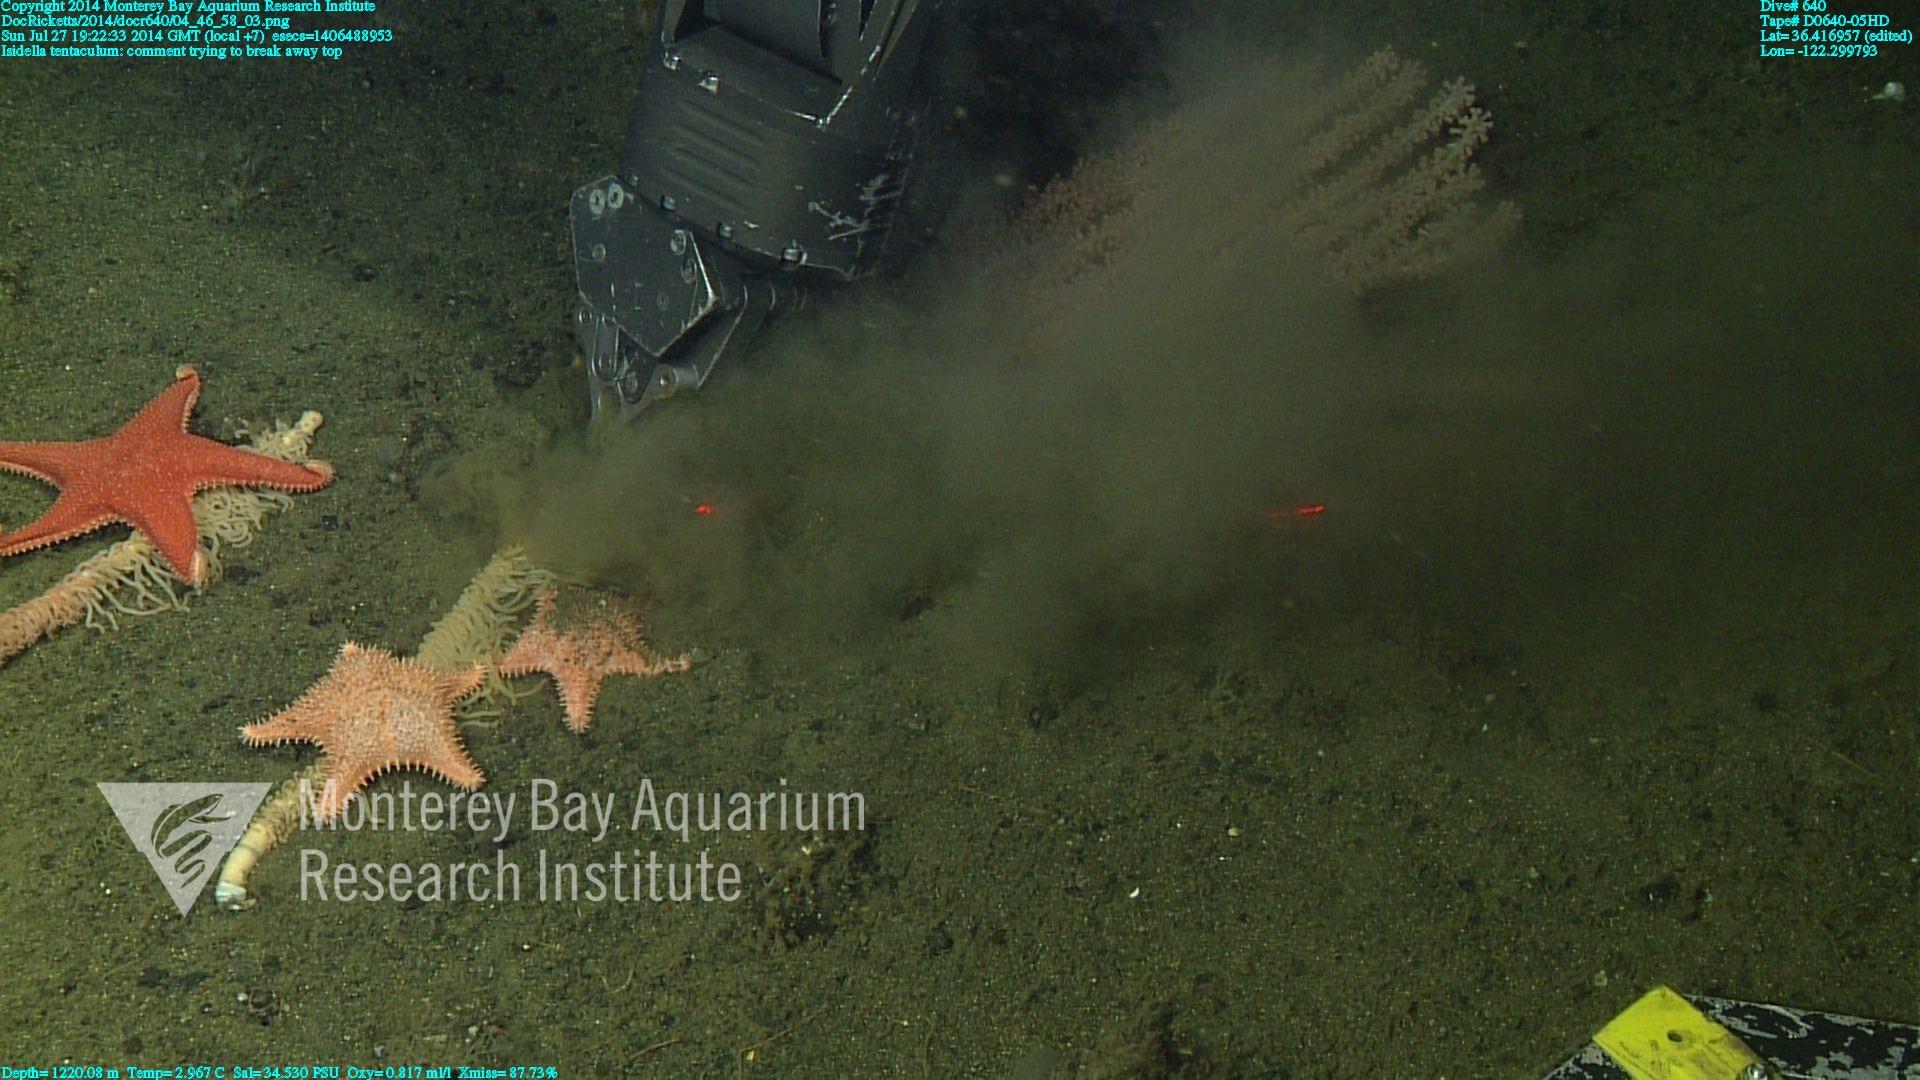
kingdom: Animalia
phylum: Cnidaria
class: Anthozoa
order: Scleralcyonacea
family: Keratoisididae
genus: Isidella
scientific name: Isidella tentaculum
